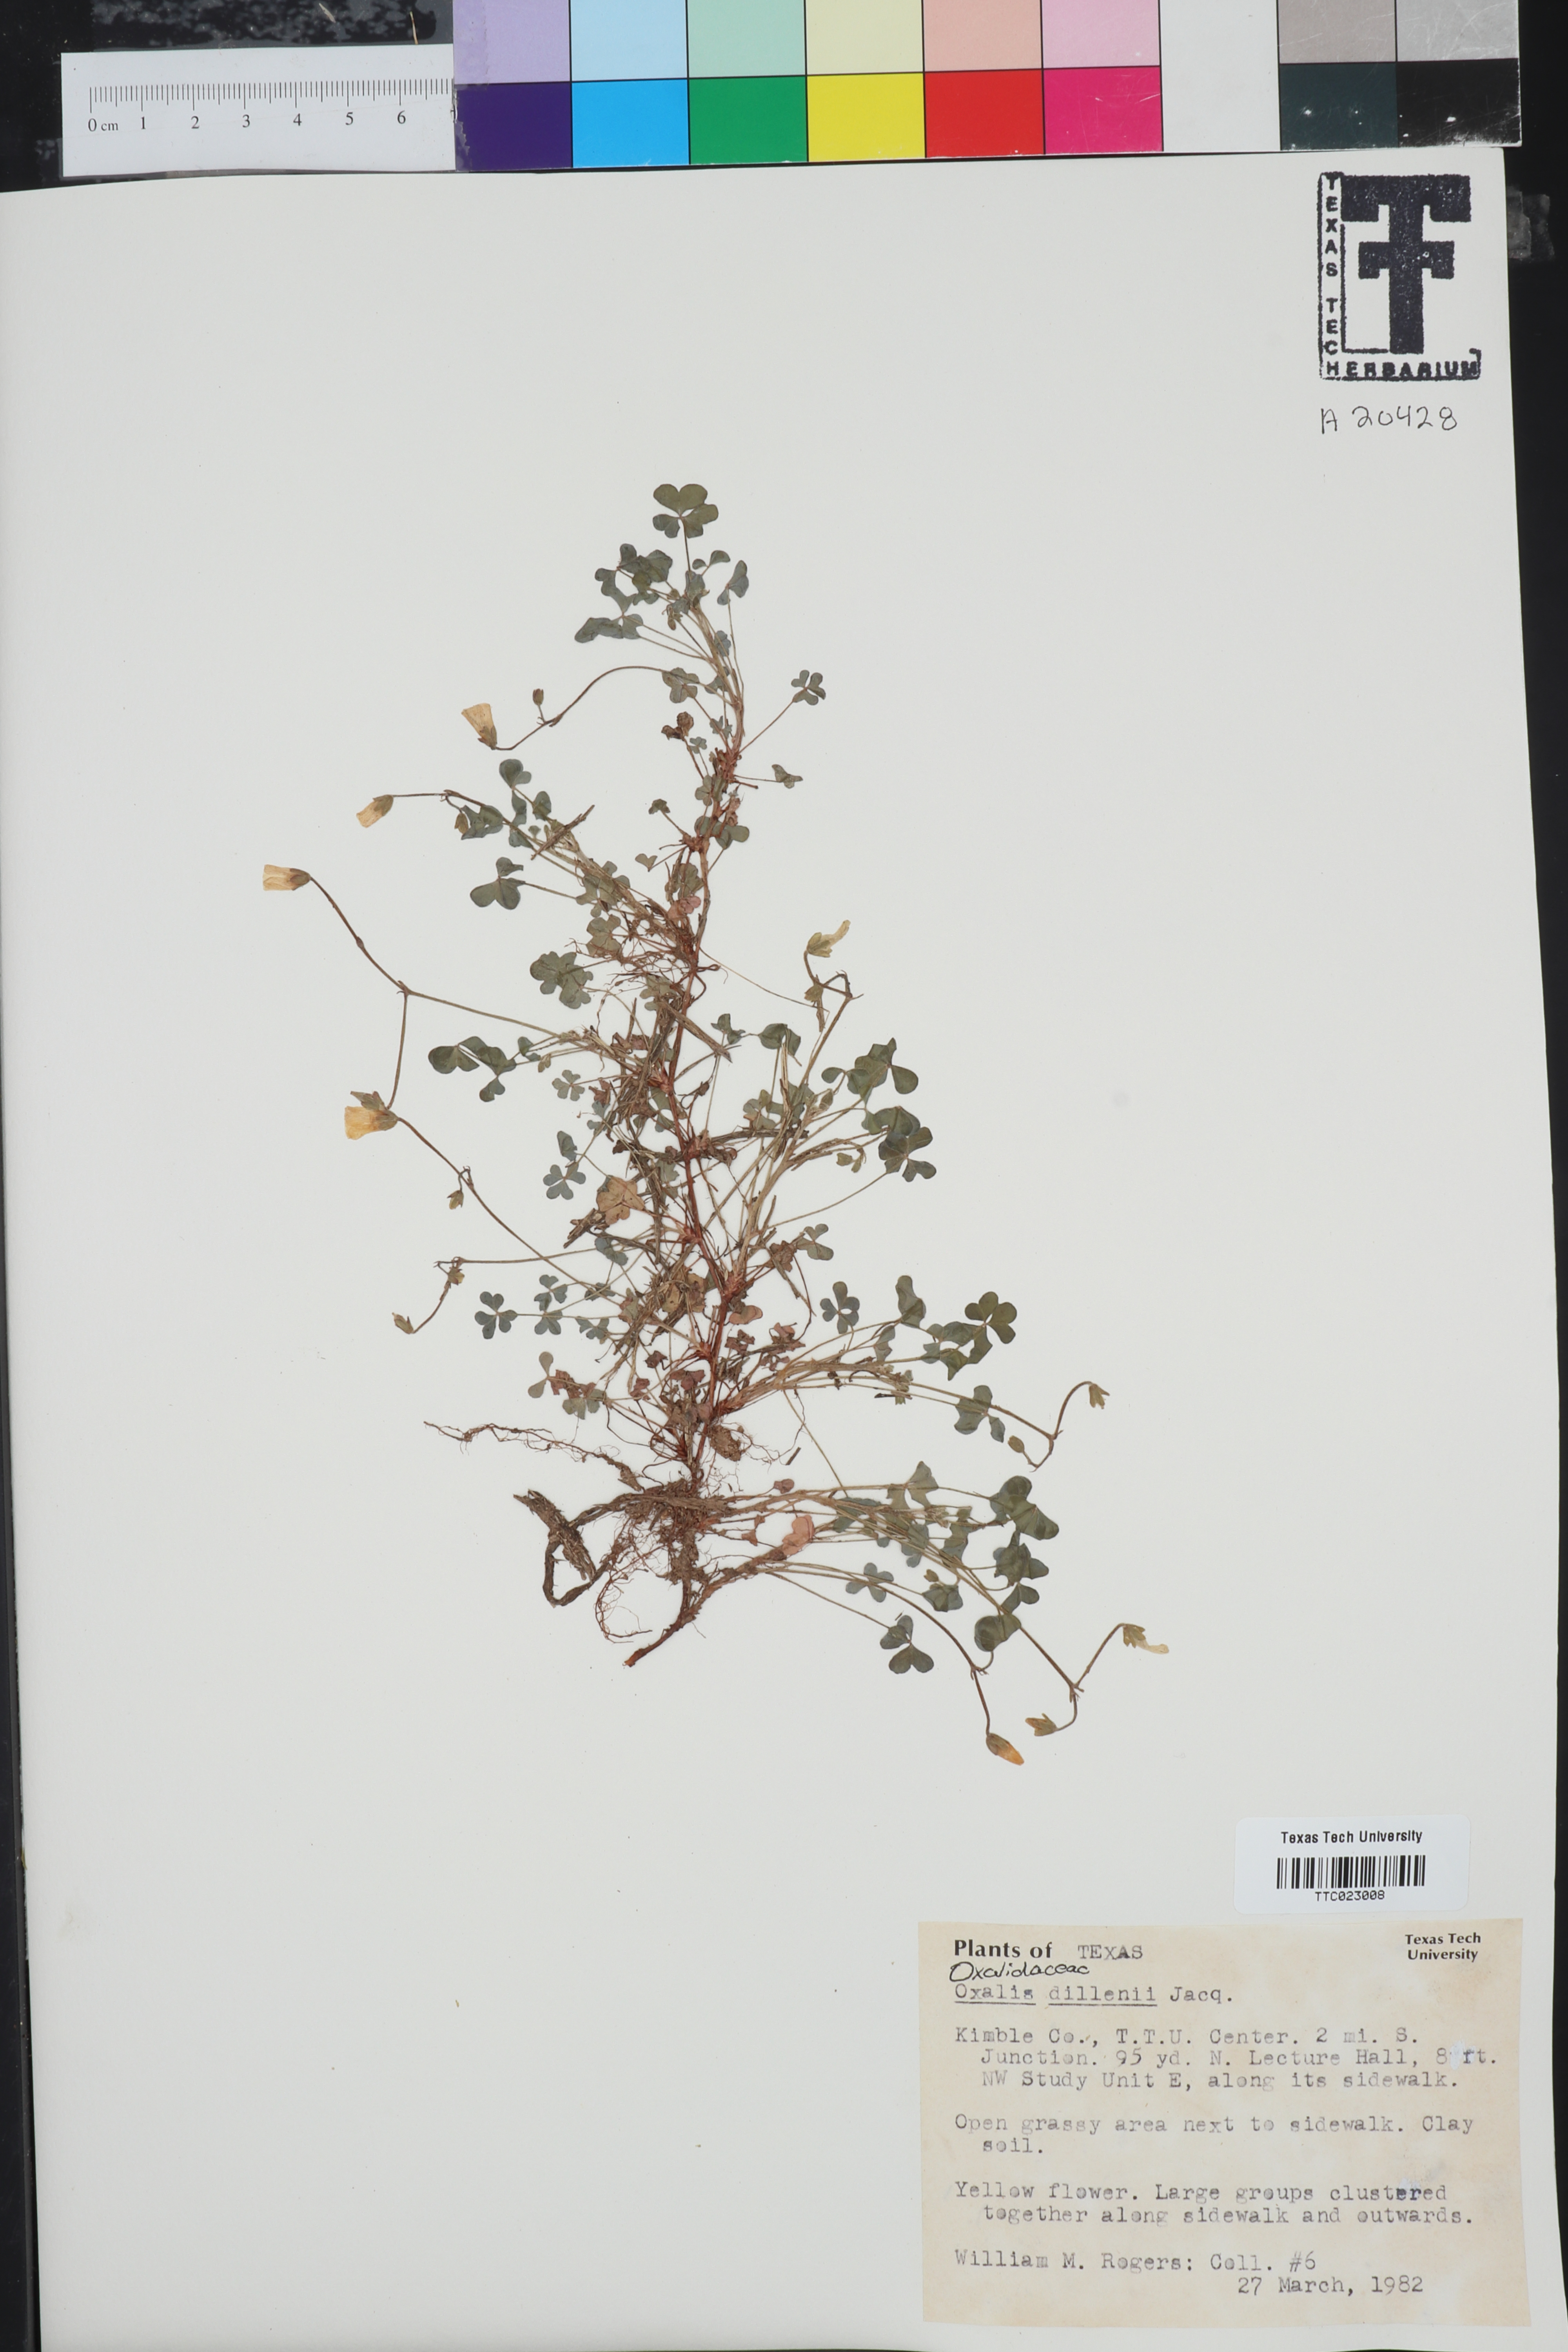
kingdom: Plantae
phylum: Tracheophyta
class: Magnoliopsida
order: Oxalidales
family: Oxalidaceae
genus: Oxalis
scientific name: Oxalis dillenii
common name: Sussex yellow-sorrel
